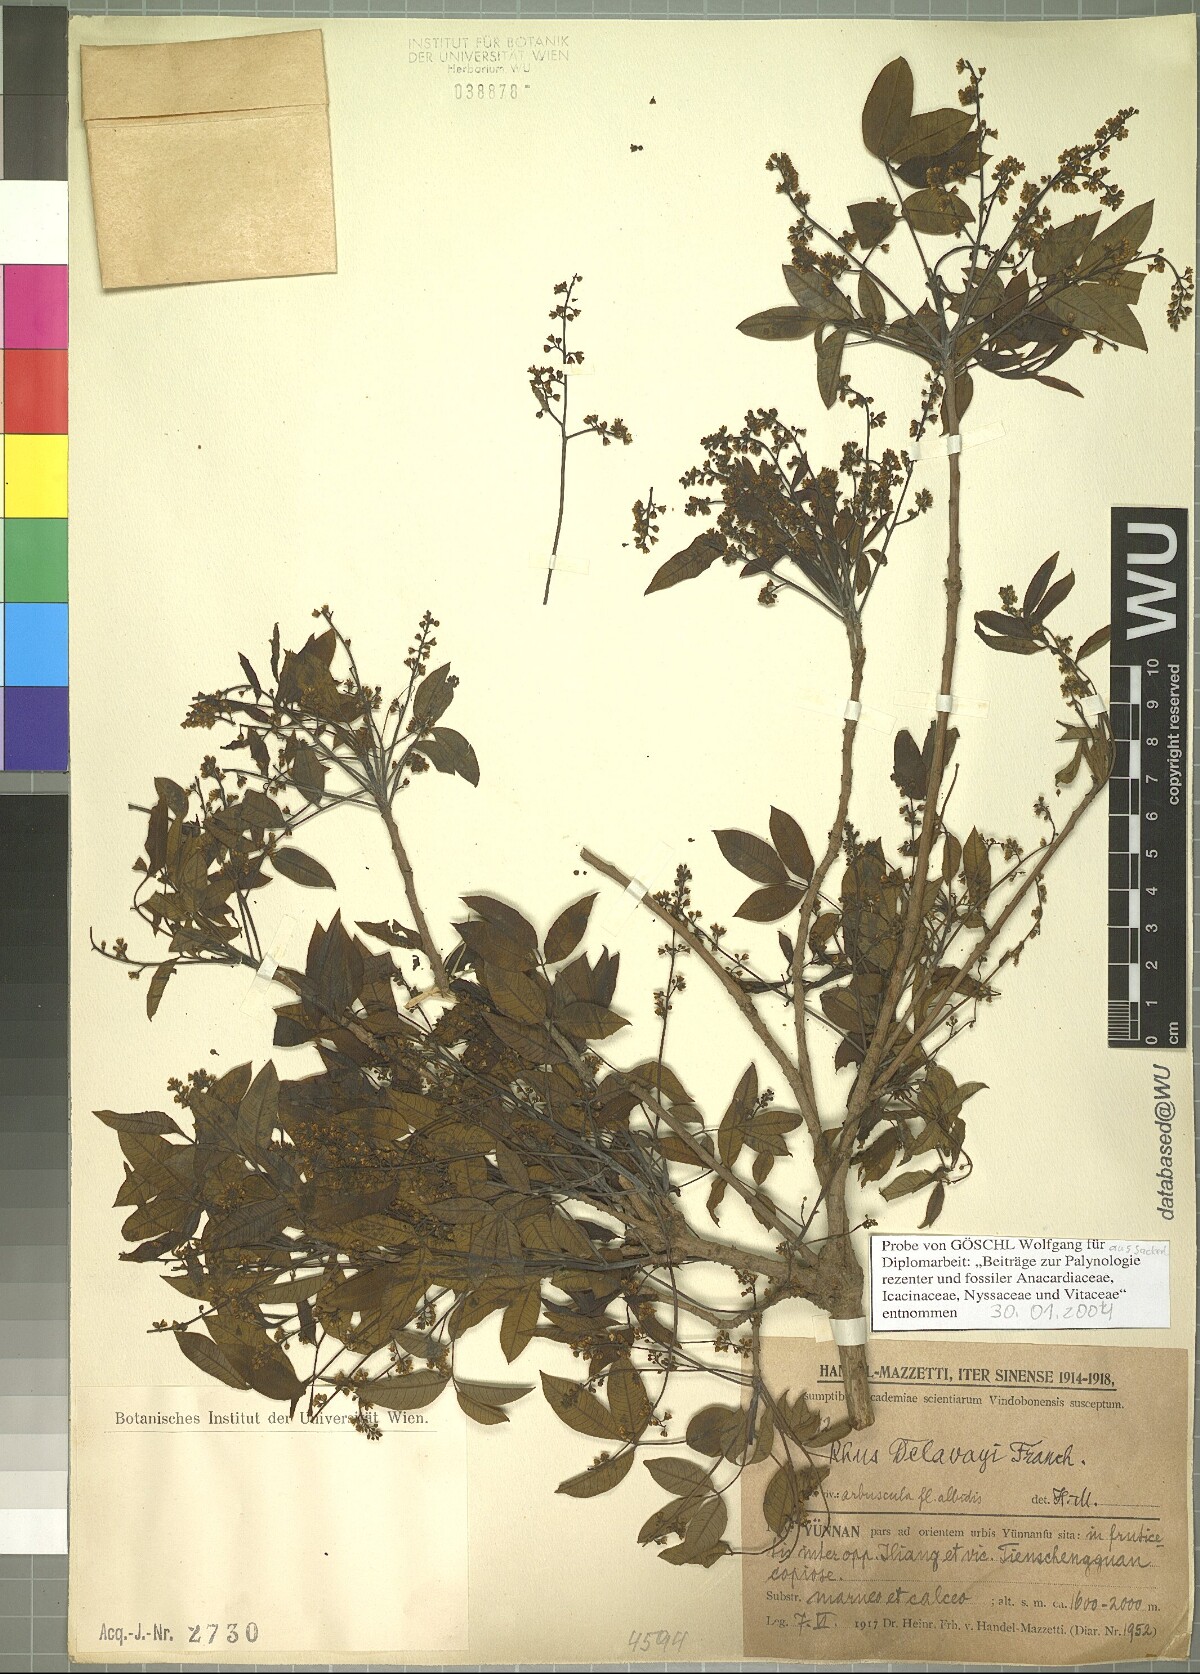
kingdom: Plantae
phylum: Tracheophyta
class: Magnoliopsida
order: Sapindales
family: Anacardiaceae
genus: Toxicodendron
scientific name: Toxicodendron delavayi
